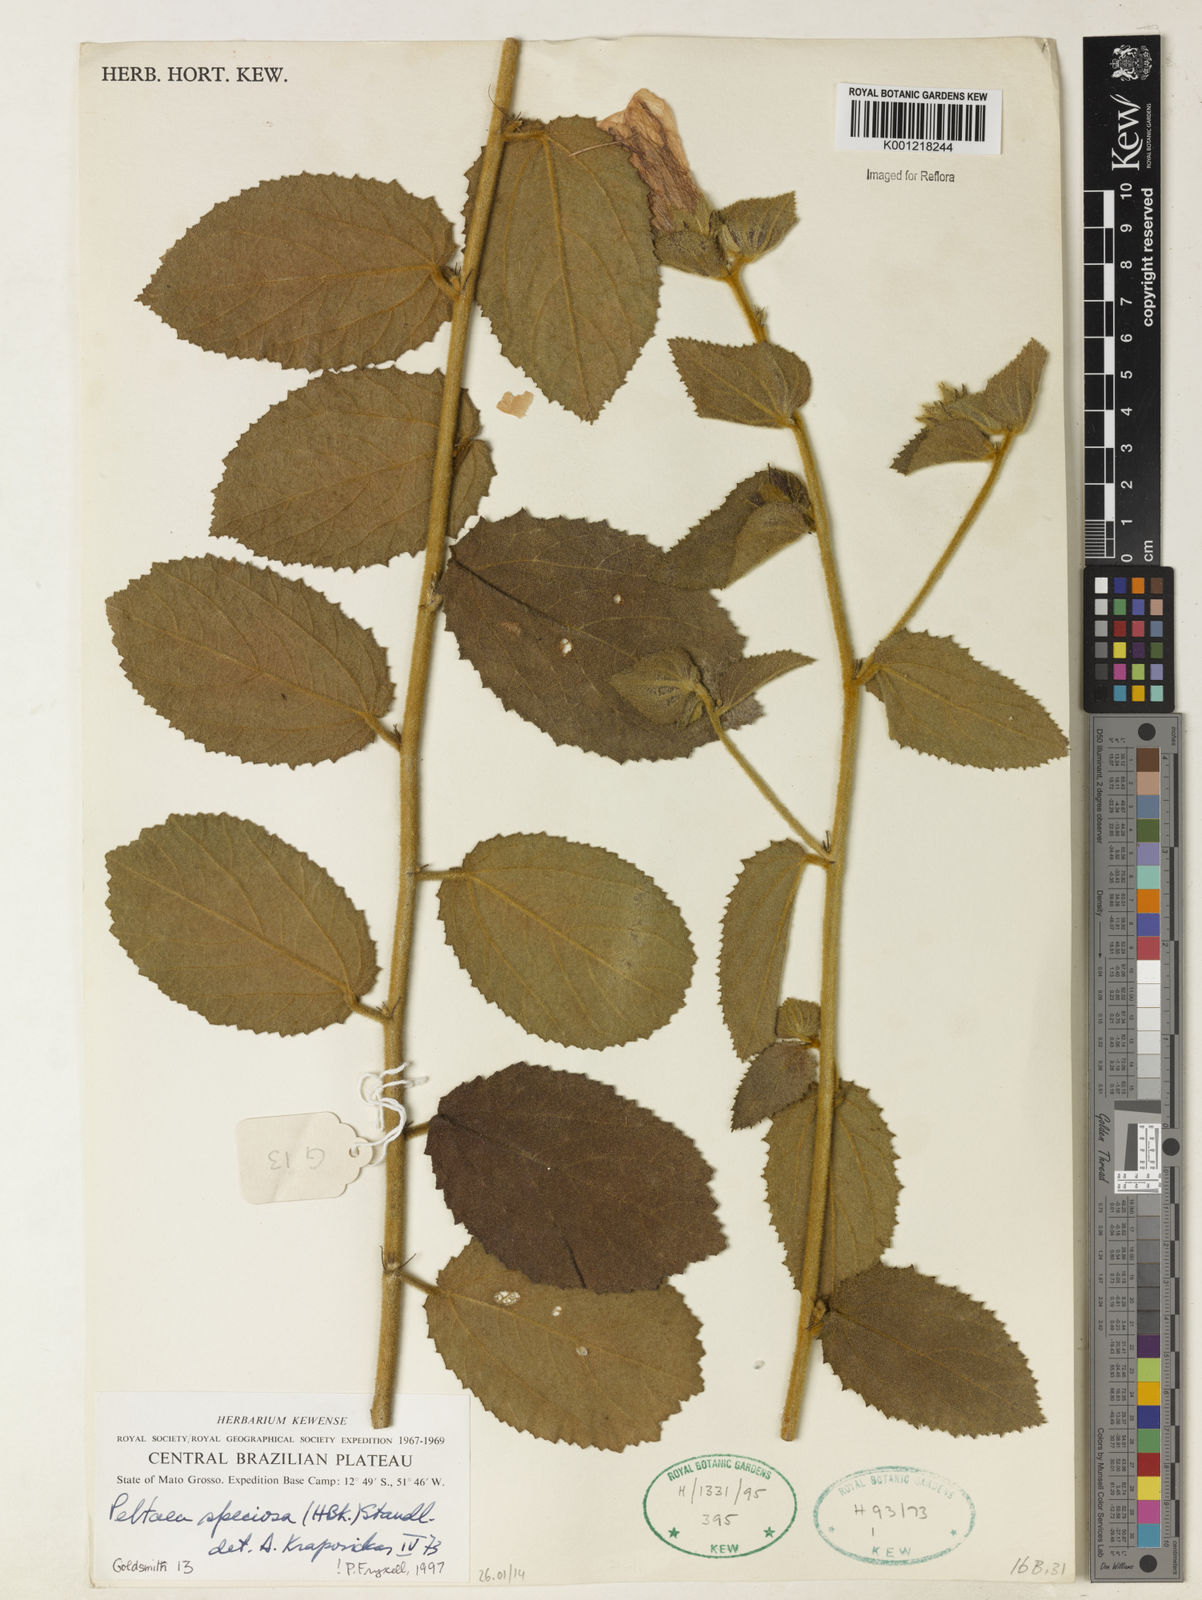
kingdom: Plantae
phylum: Tracheophyta
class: Magnoliopsida
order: Malvales
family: Malvaceae
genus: Peltaea
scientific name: Peltaea speciosa
